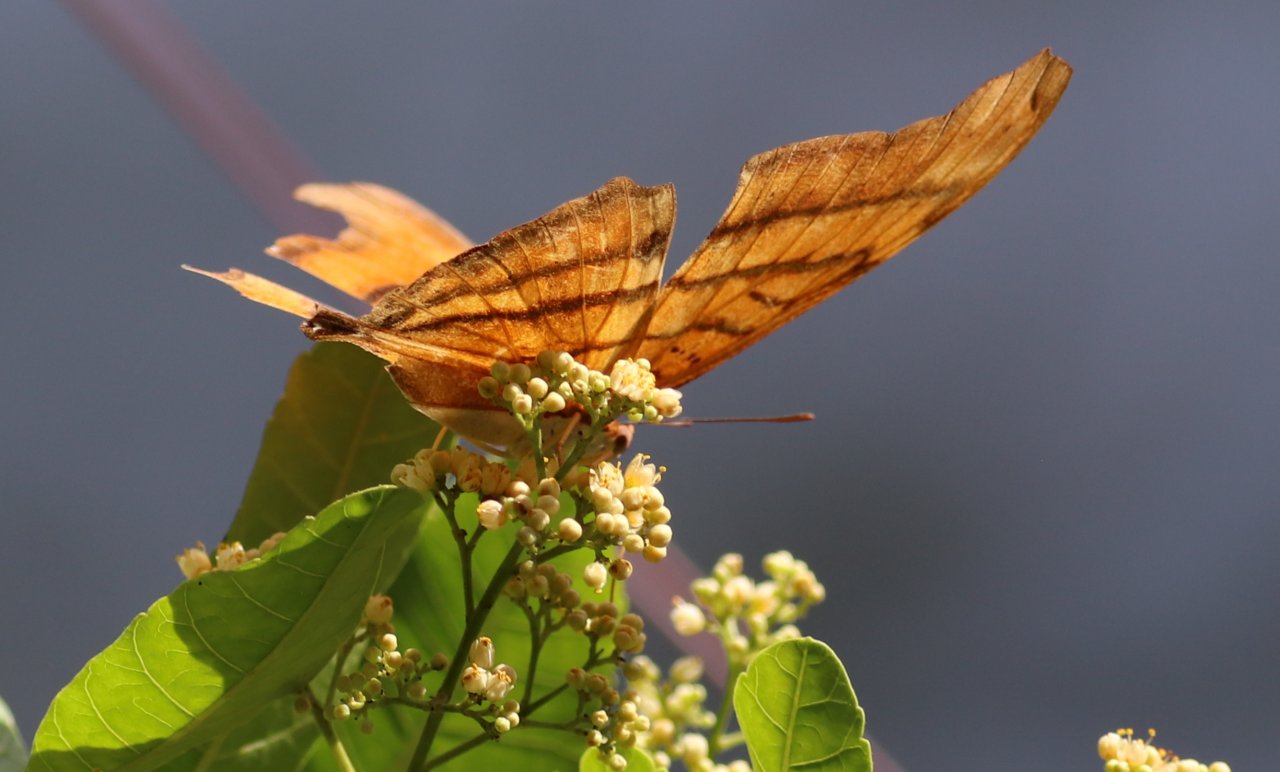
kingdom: Animalia
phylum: Arthropoda
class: Insecta
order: Lepidoptera
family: Nymphalidae
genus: Marpesia
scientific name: Marpesia petreus
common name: Ruddy Daggerwing
